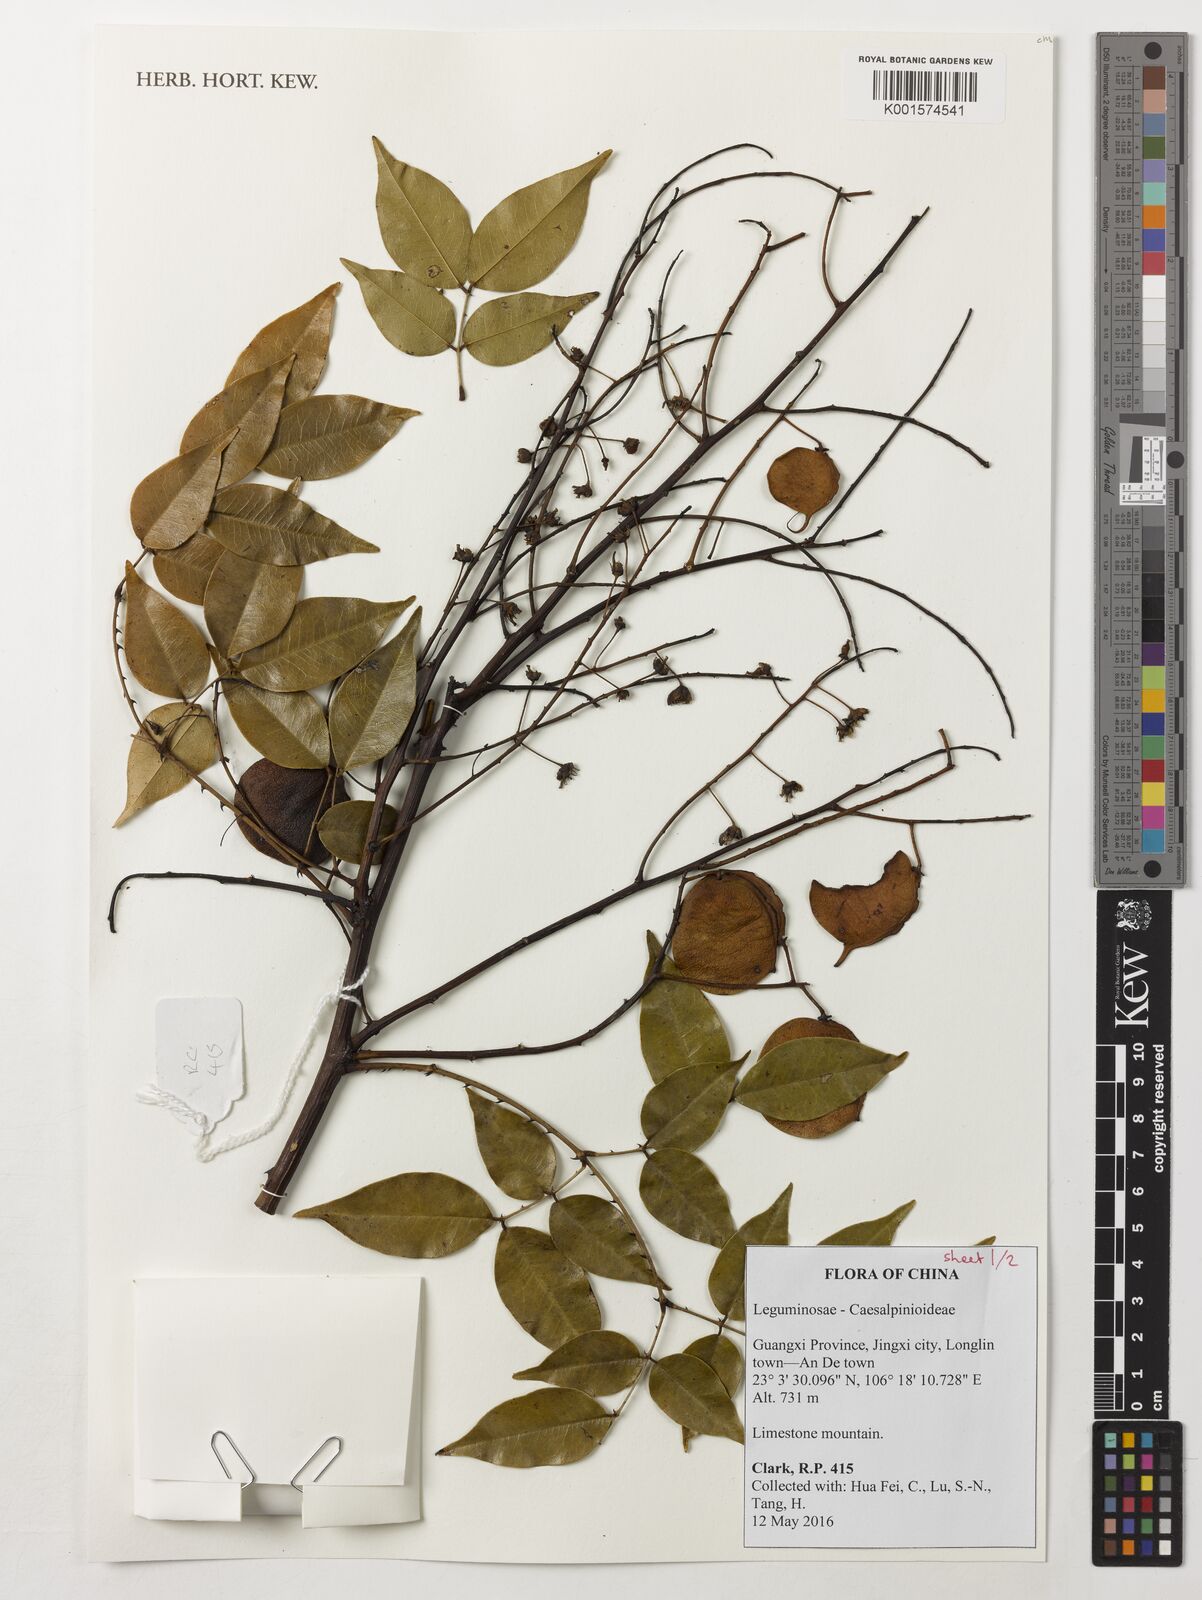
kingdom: Plantae
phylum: Tracheophyta
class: Magnoliopsida
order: Fabales
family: Fabaceae
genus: Mezoneuron
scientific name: Mezoneuron sinense
